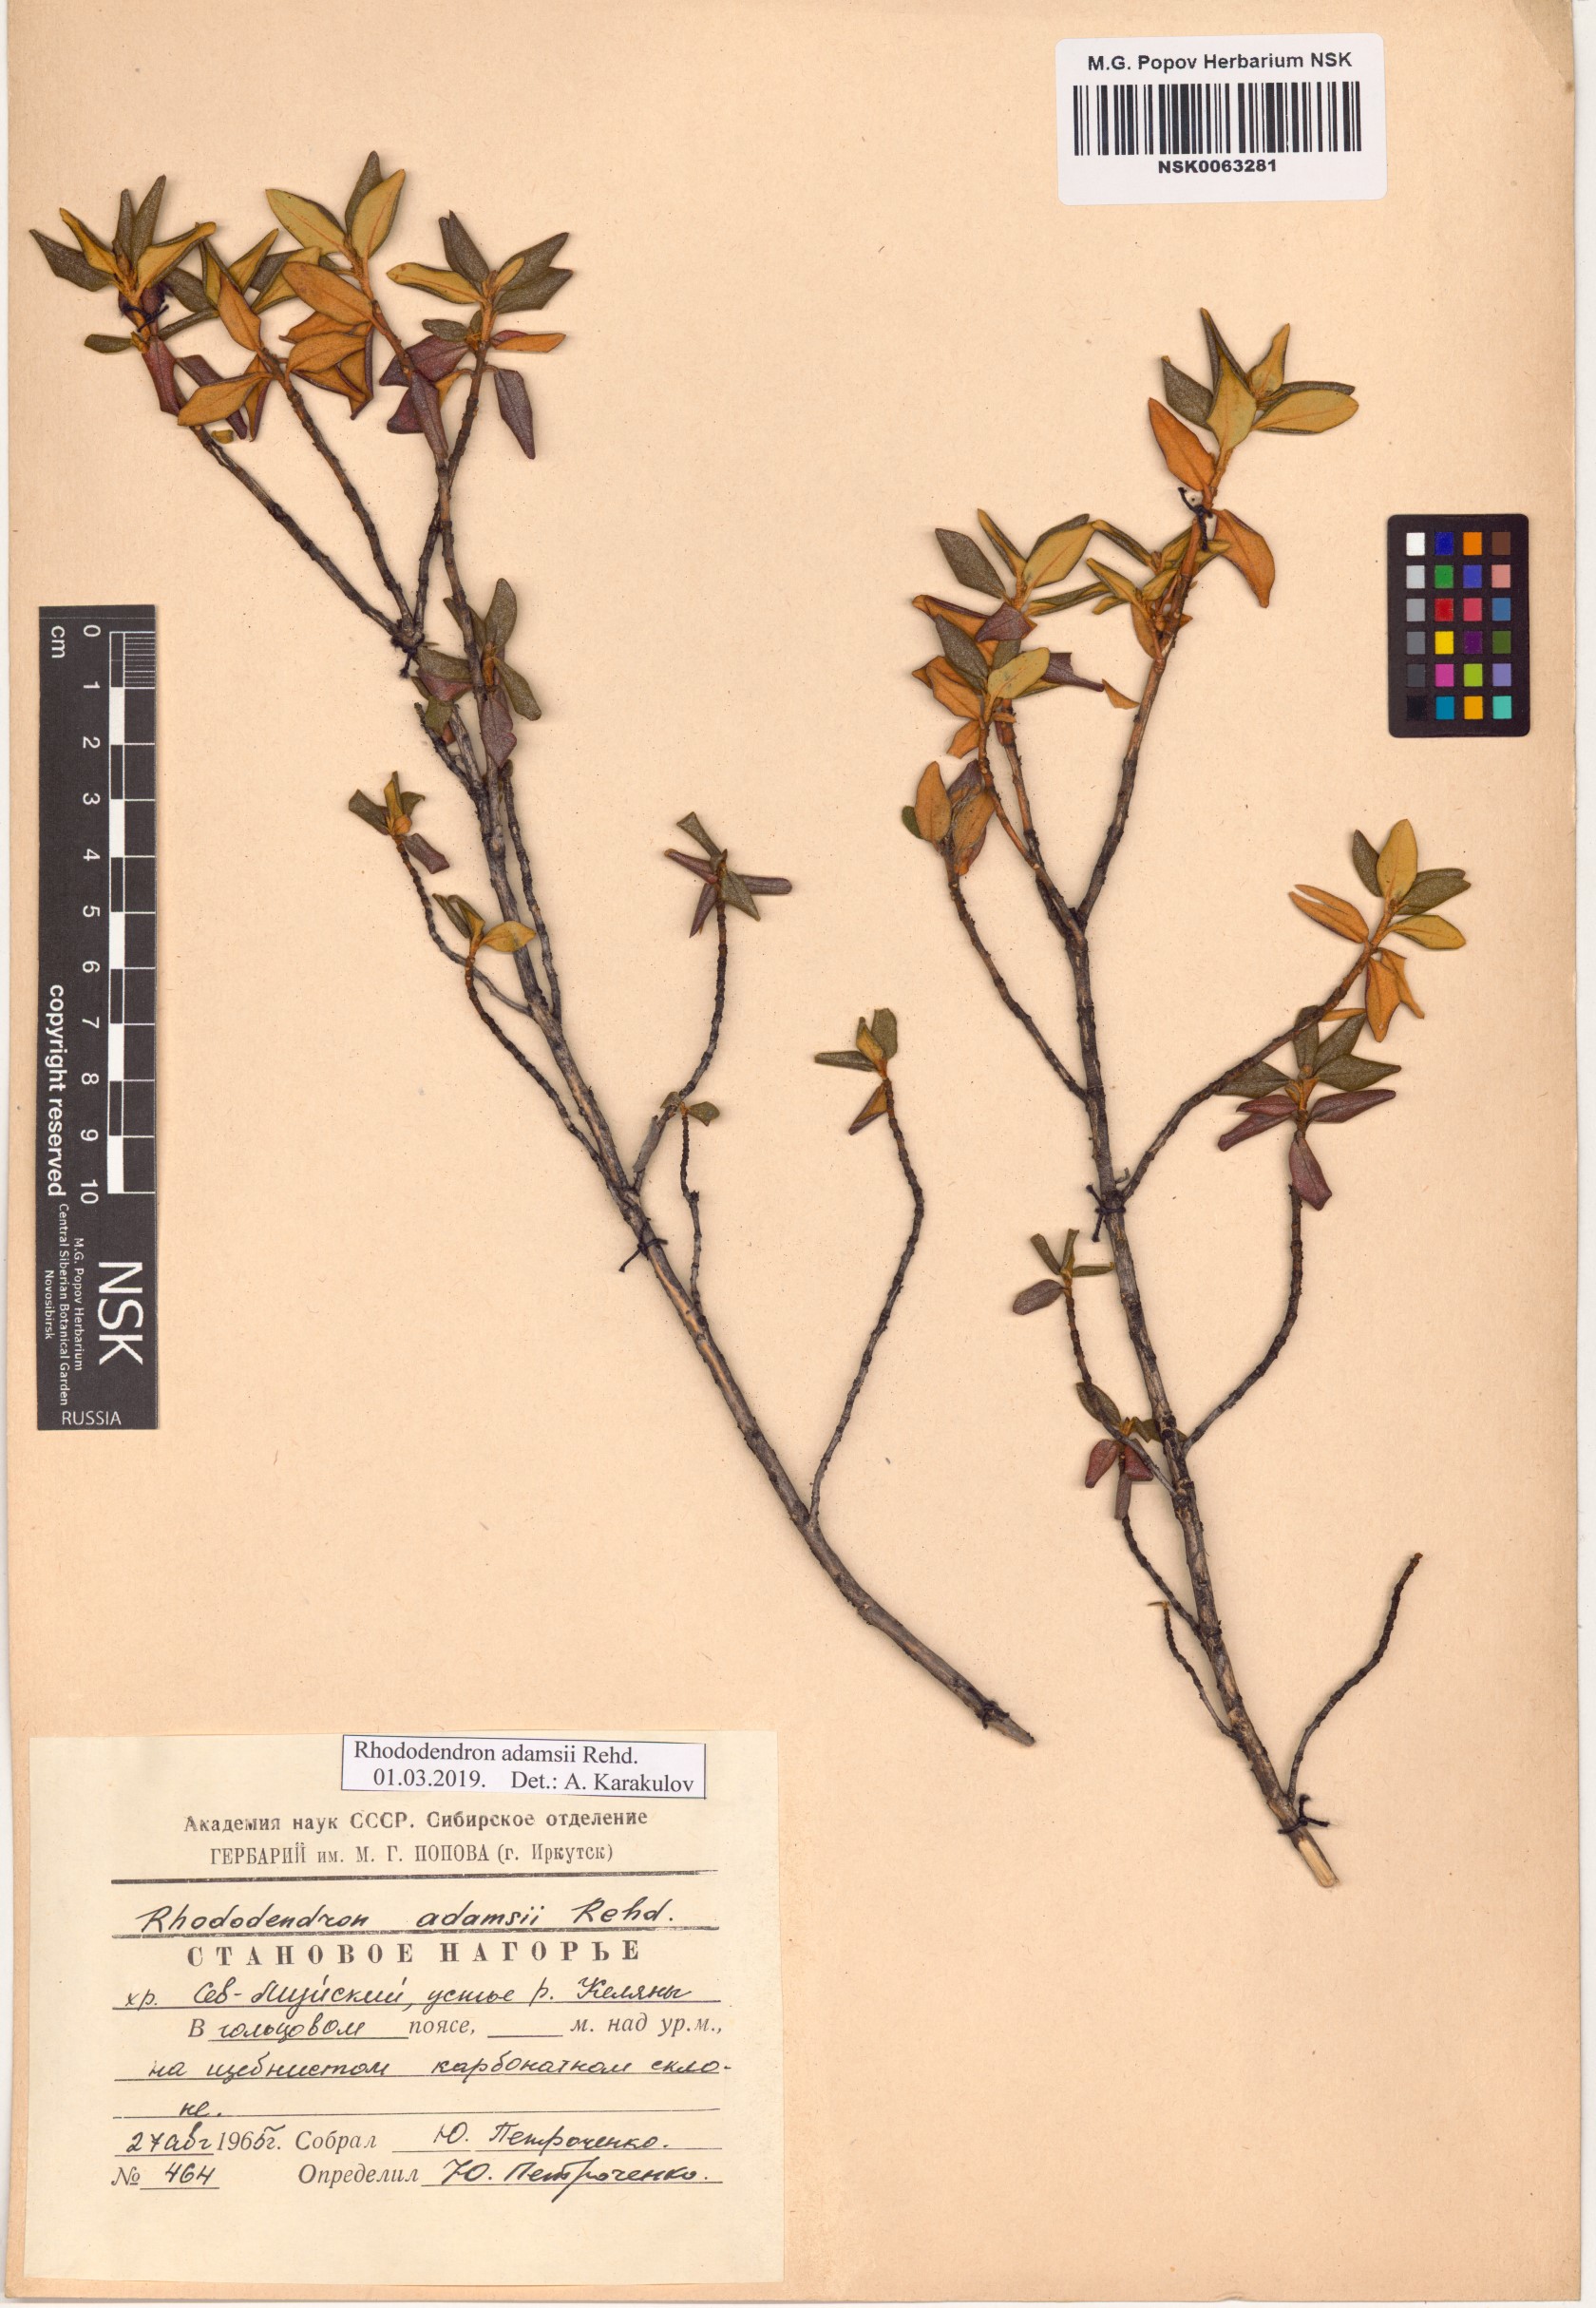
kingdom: Plantae
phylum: Tracheophyta
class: Magnoliopsida
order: Ericales
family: Ericaceae
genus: Rhododendron
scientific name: Rhododendron adamsii
